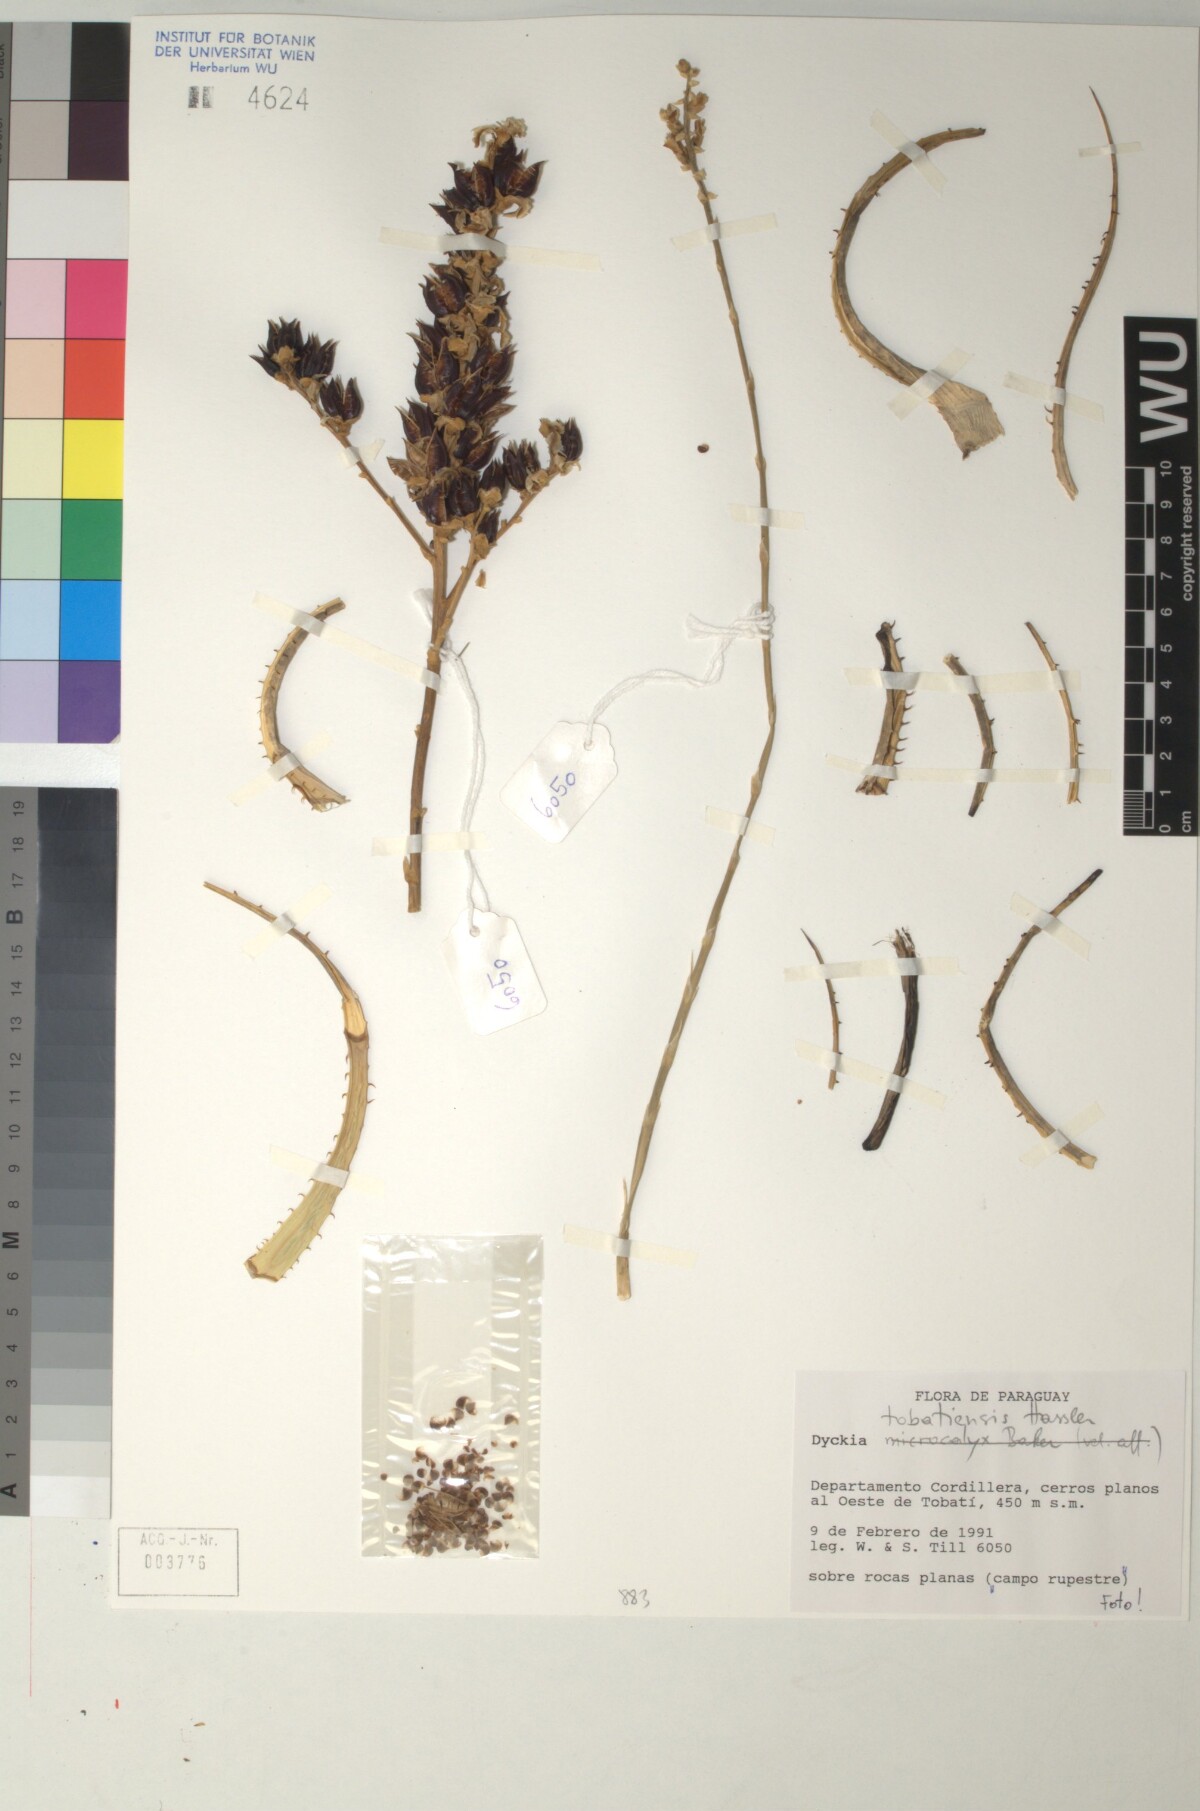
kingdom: Plantae
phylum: Tracheophyta
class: Liliopsida
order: Poales
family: Bromeliaceae
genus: Dyckia
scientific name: Dyckia tobatiensis
